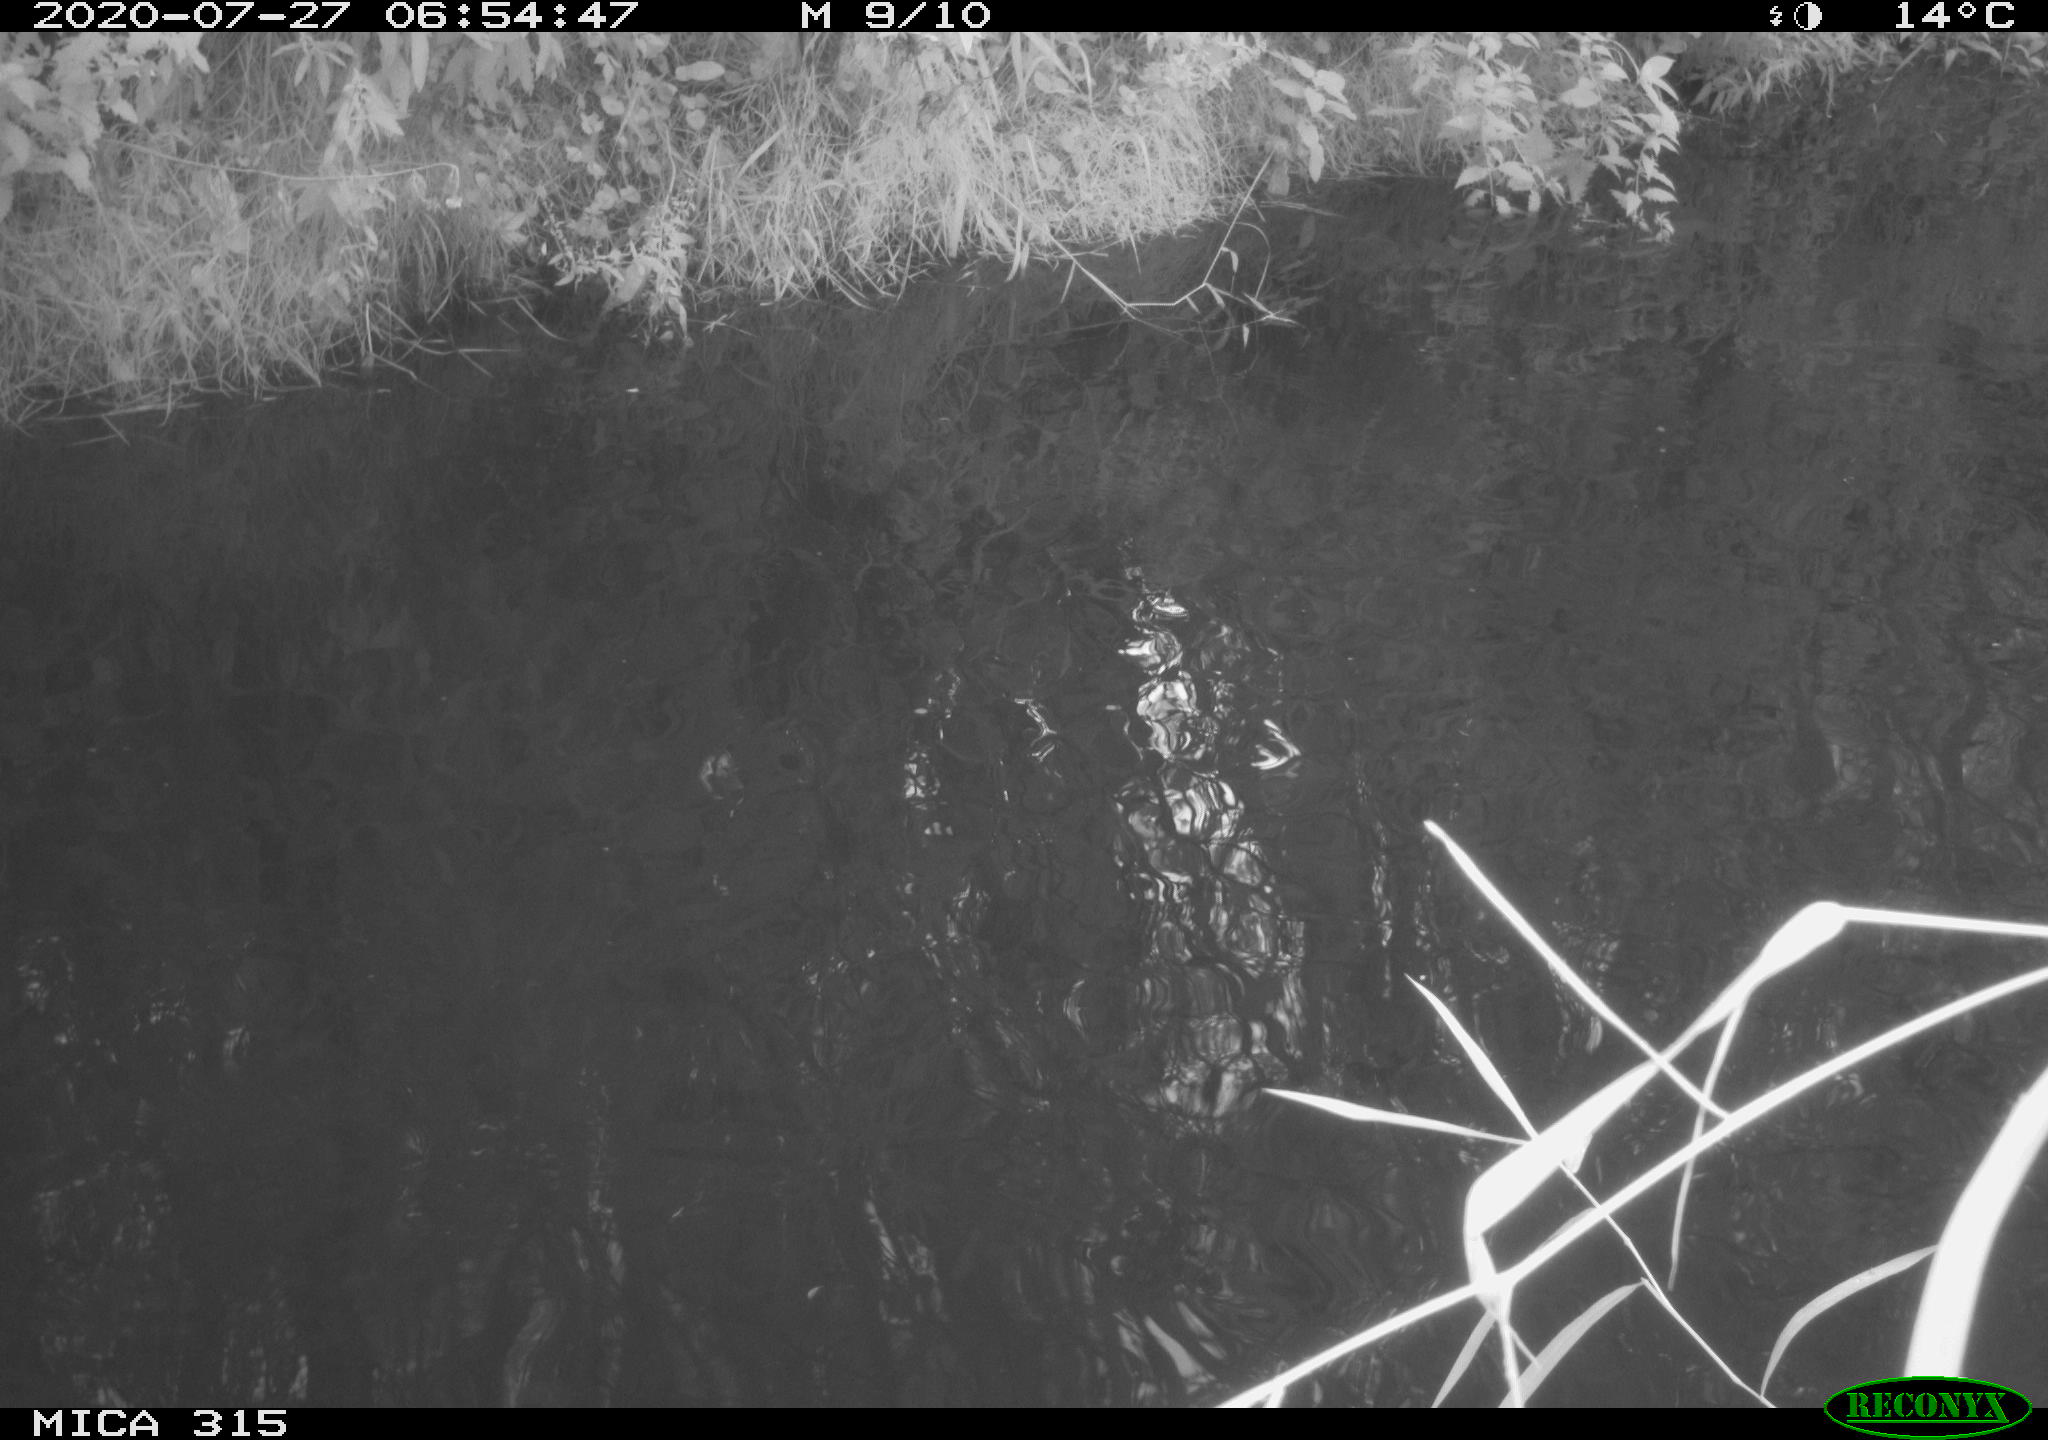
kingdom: Animalia
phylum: Chordata
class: Aves
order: Anseriformes
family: Anatidae
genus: Anas
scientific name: Anas platyrhynchos
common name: Mallard
